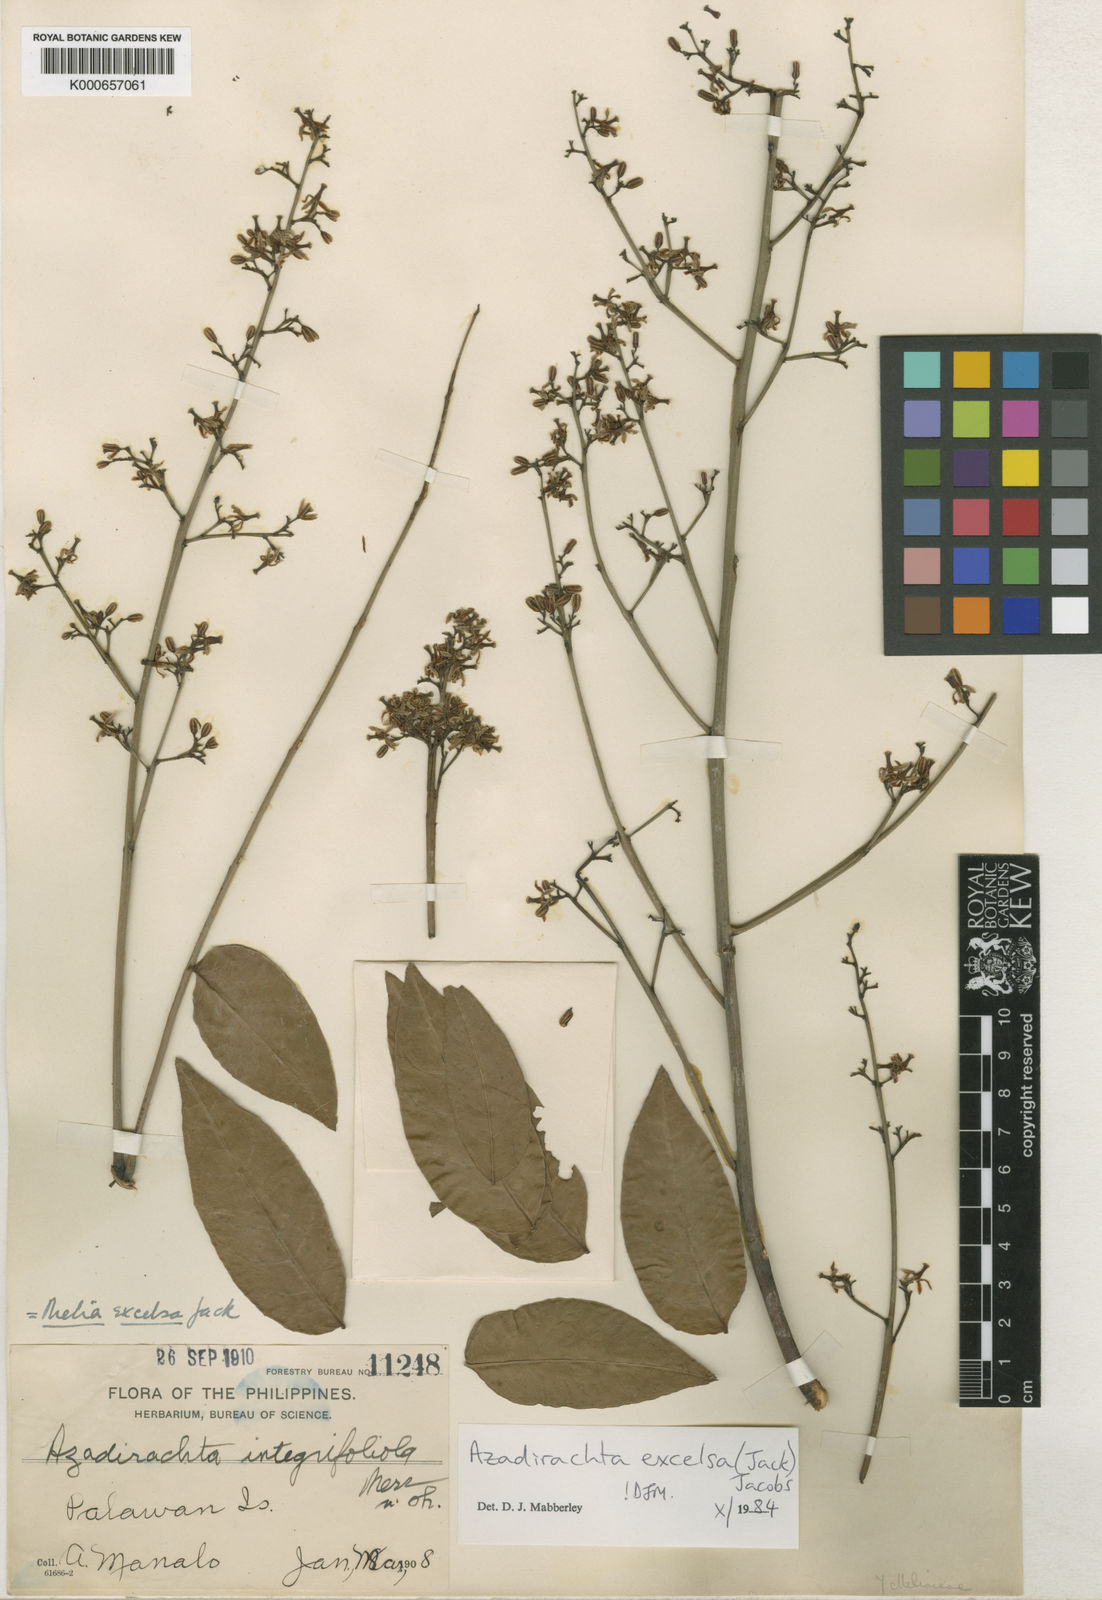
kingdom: Plantae
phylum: Tracheophyta
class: Magnoliopsida
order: Sapindales
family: Meliaceae
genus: Azadirachta
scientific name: Azadirachta excelsa
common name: Neem tree
